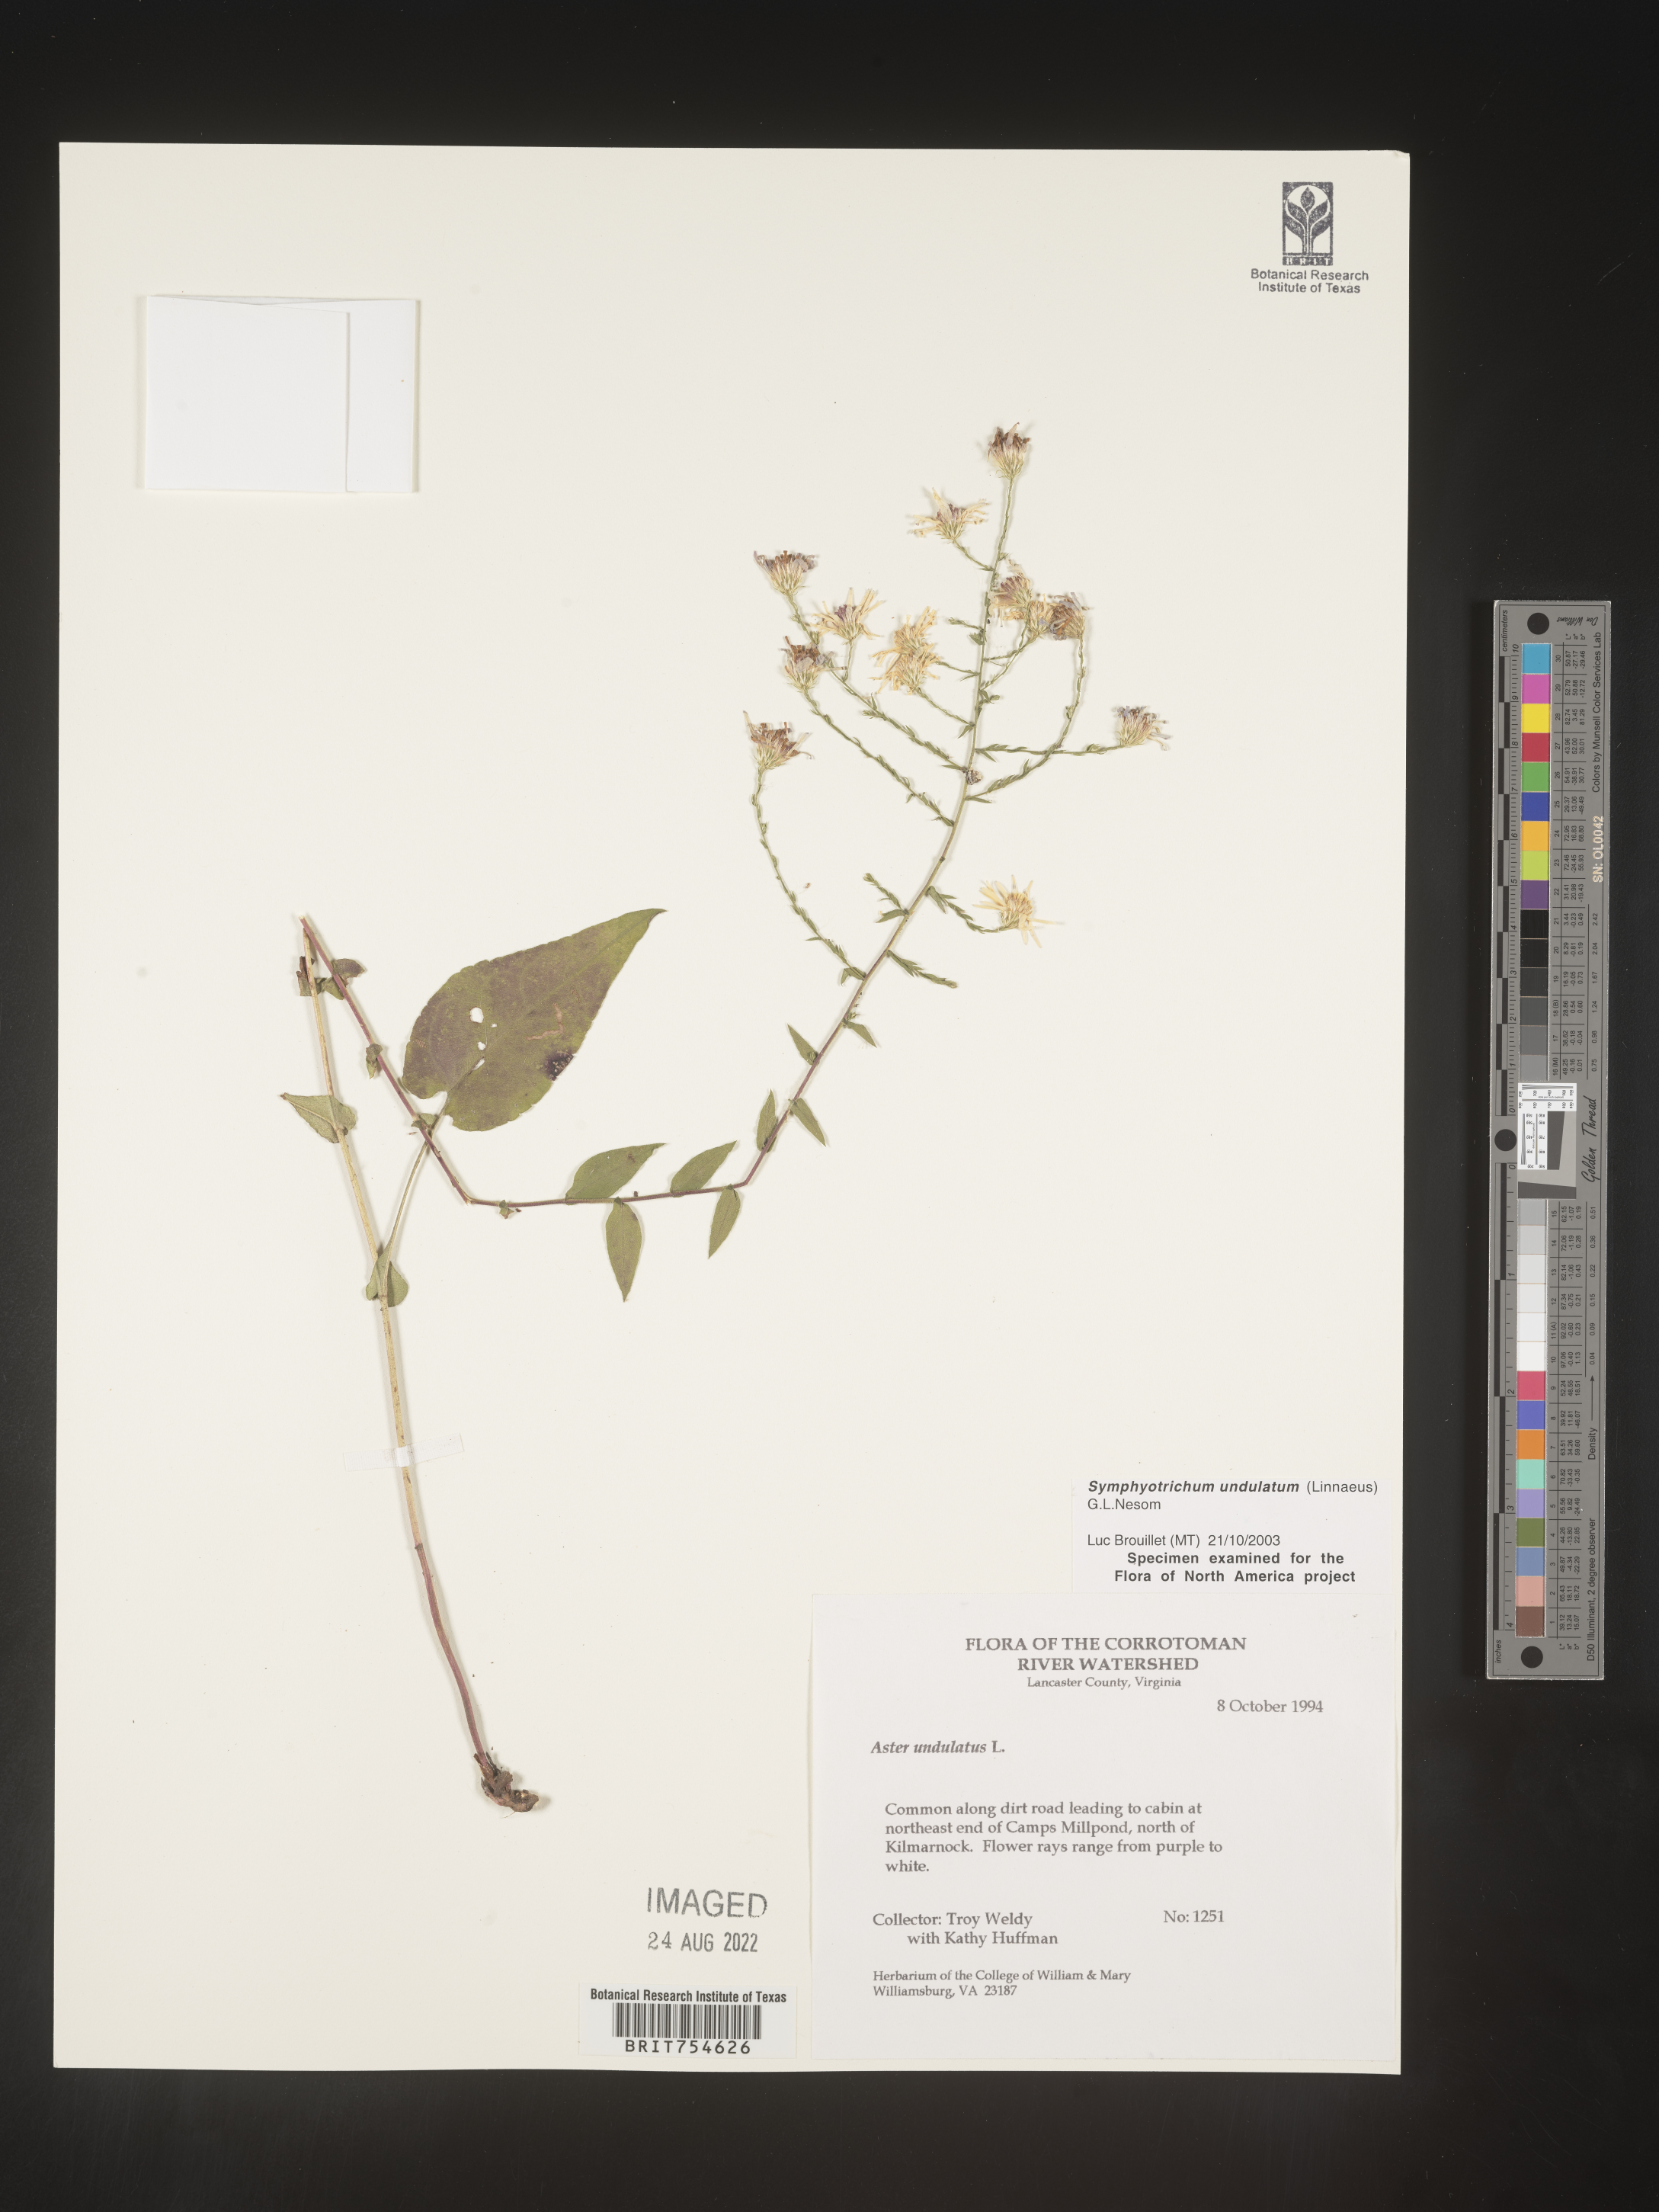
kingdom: Plantae
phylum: Tracheophyta
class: Magnoliopsida
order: Asterales
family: Asteraceae
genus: Symphyotrichum
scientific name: Symphyotrichum undulatum
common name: Clasping heart-leaf aster
